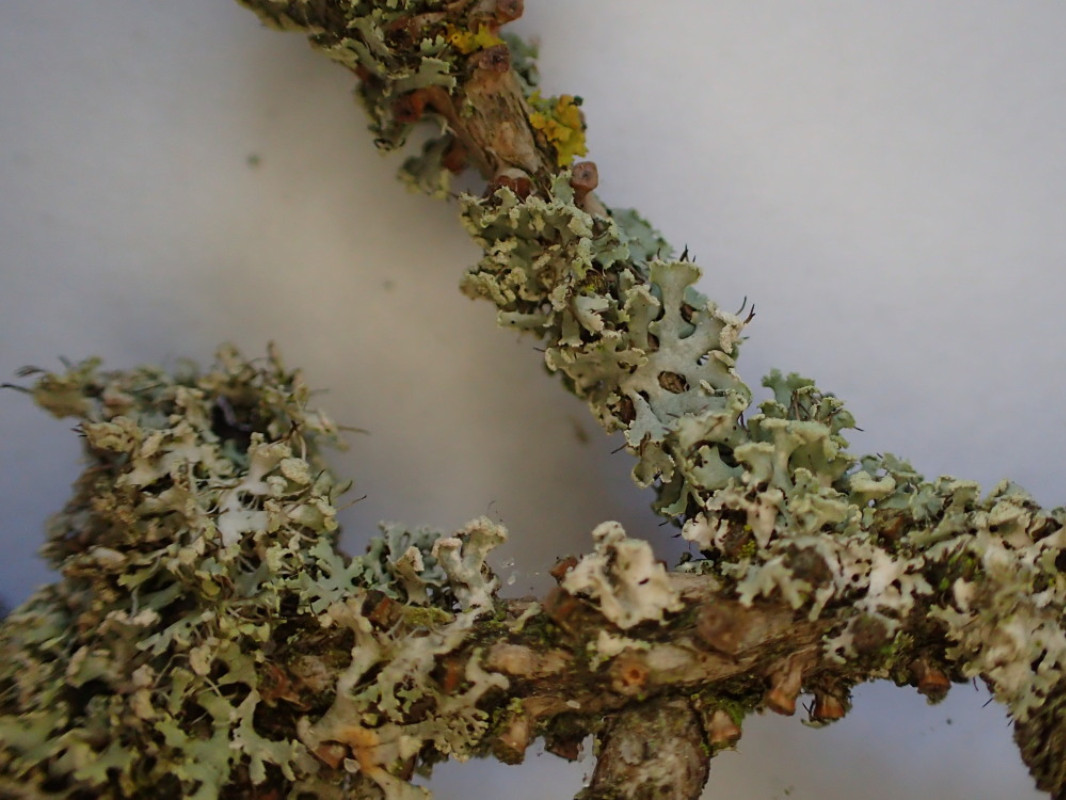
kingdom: Fungi
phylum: Ascomycota
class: Lecanoromycetes
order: Caliciales
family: Physciaceae
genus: Physcia
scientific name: Physcia tenella
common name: spæd rosetlav
